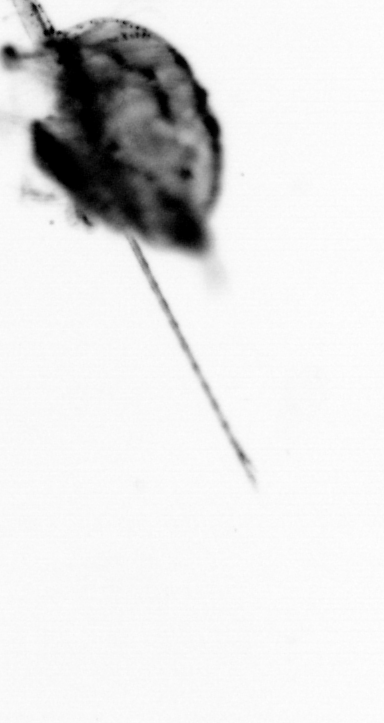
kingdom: Animalia
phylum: Arthropoda
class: Copepoda
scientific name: Copepoda
